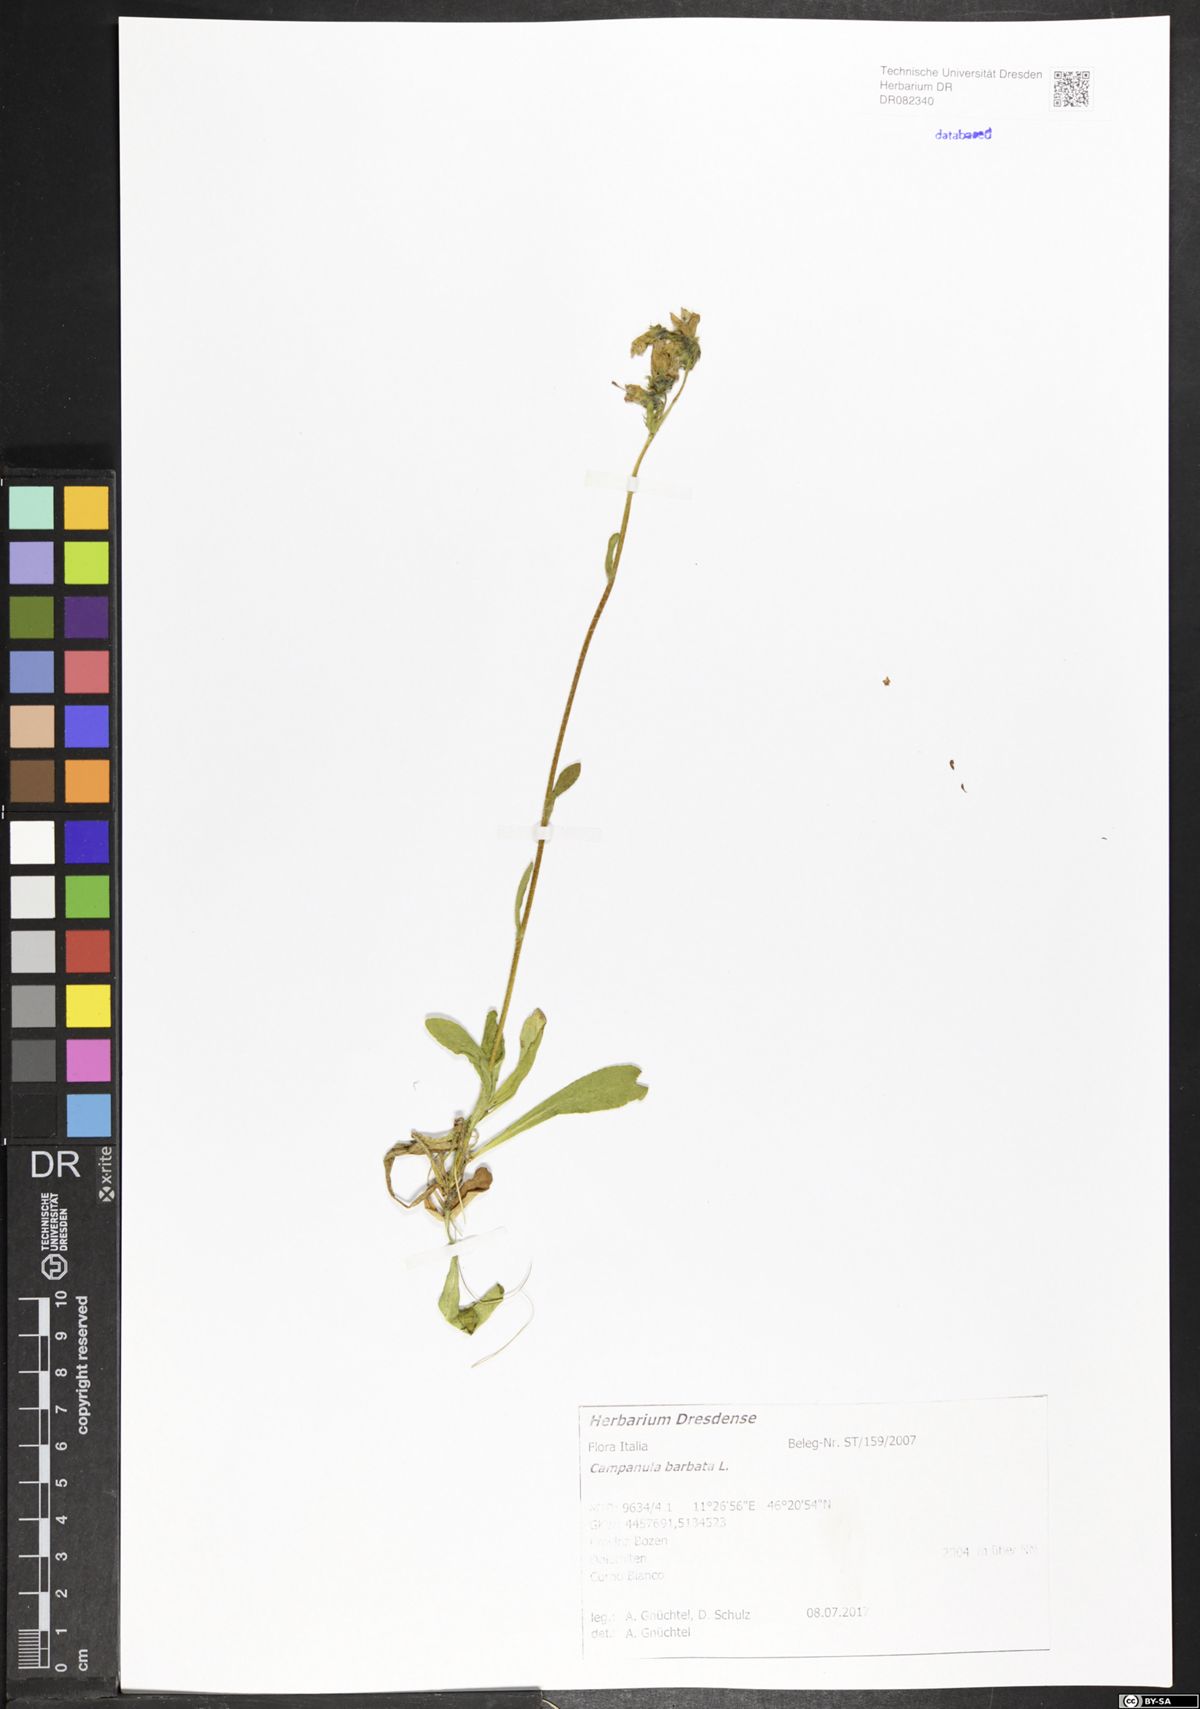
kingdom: Plantae
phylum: Tracheophyta
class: Magnoliopsida
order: Asterales
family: Campanulaceae
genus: Campanula
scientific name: Campanula barbata
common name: Bearded bellflower
